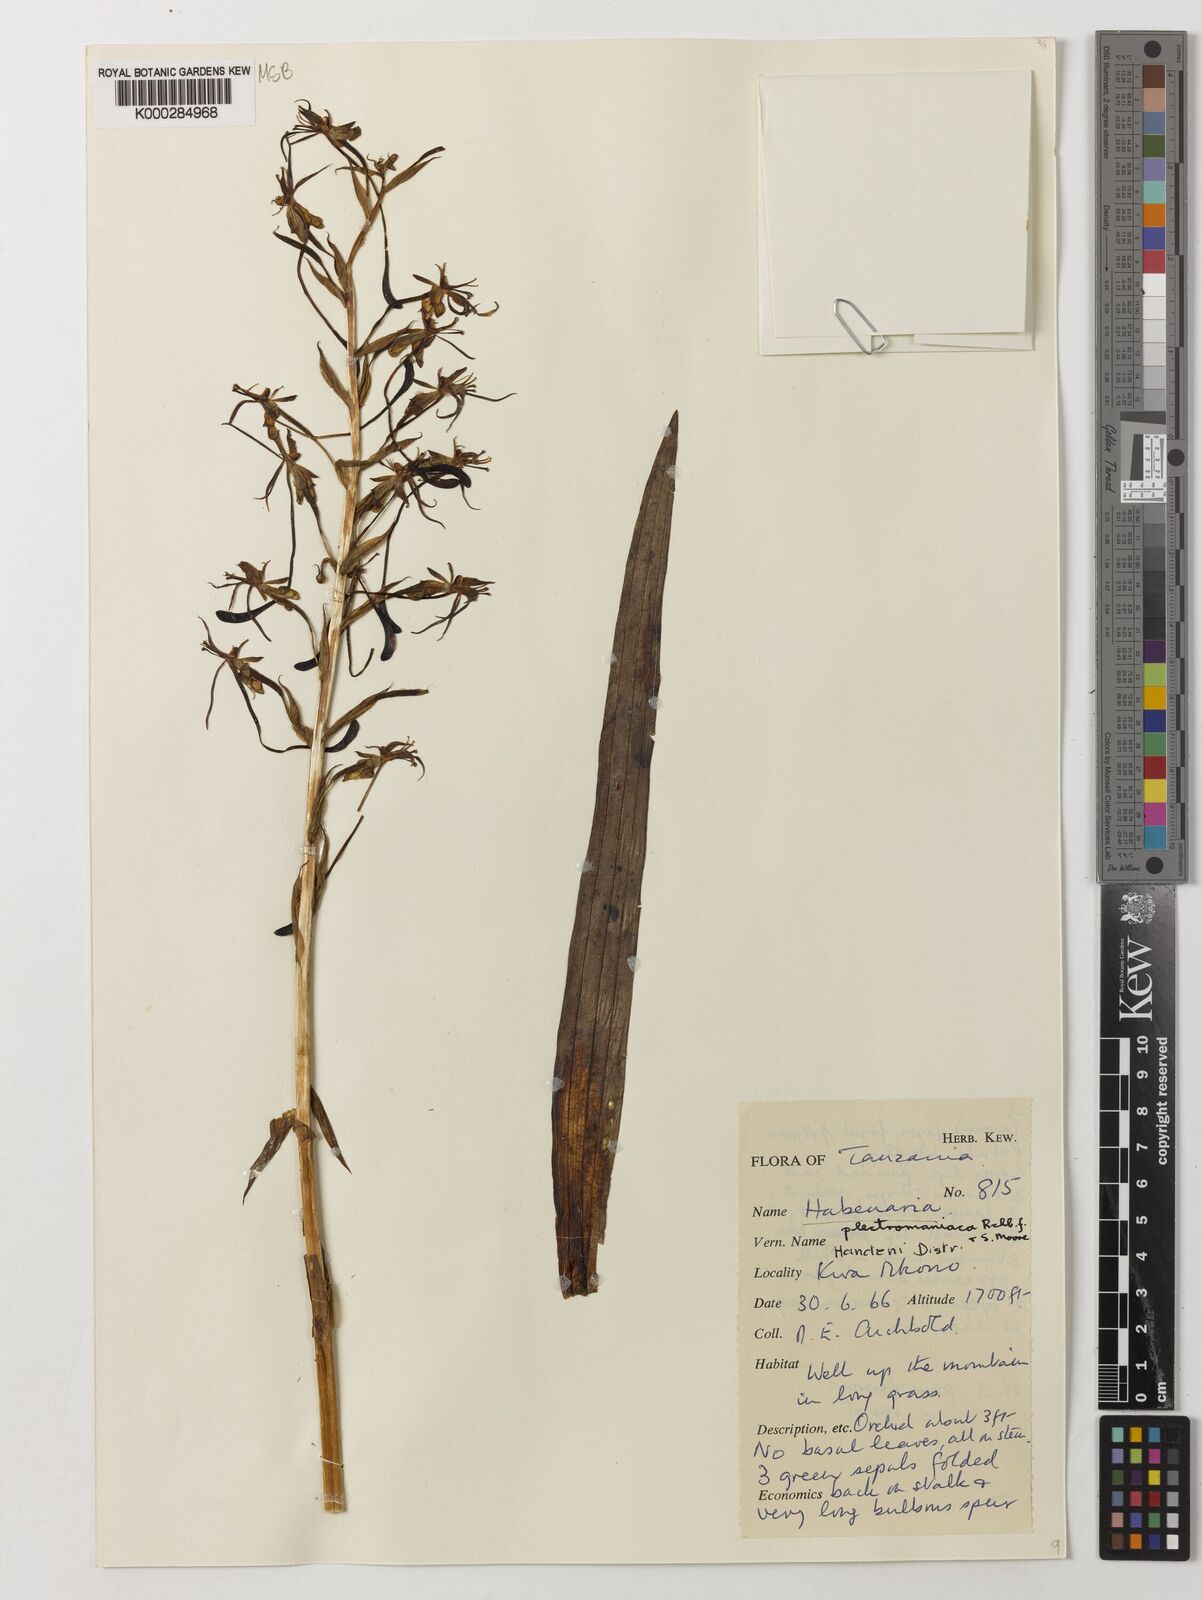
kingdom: Plantae
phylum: Tracheophyta
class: Liliopsida
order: Asparagales
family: Orchidaceae
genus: Habenaria
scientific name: Habenaria plectromaniaca
